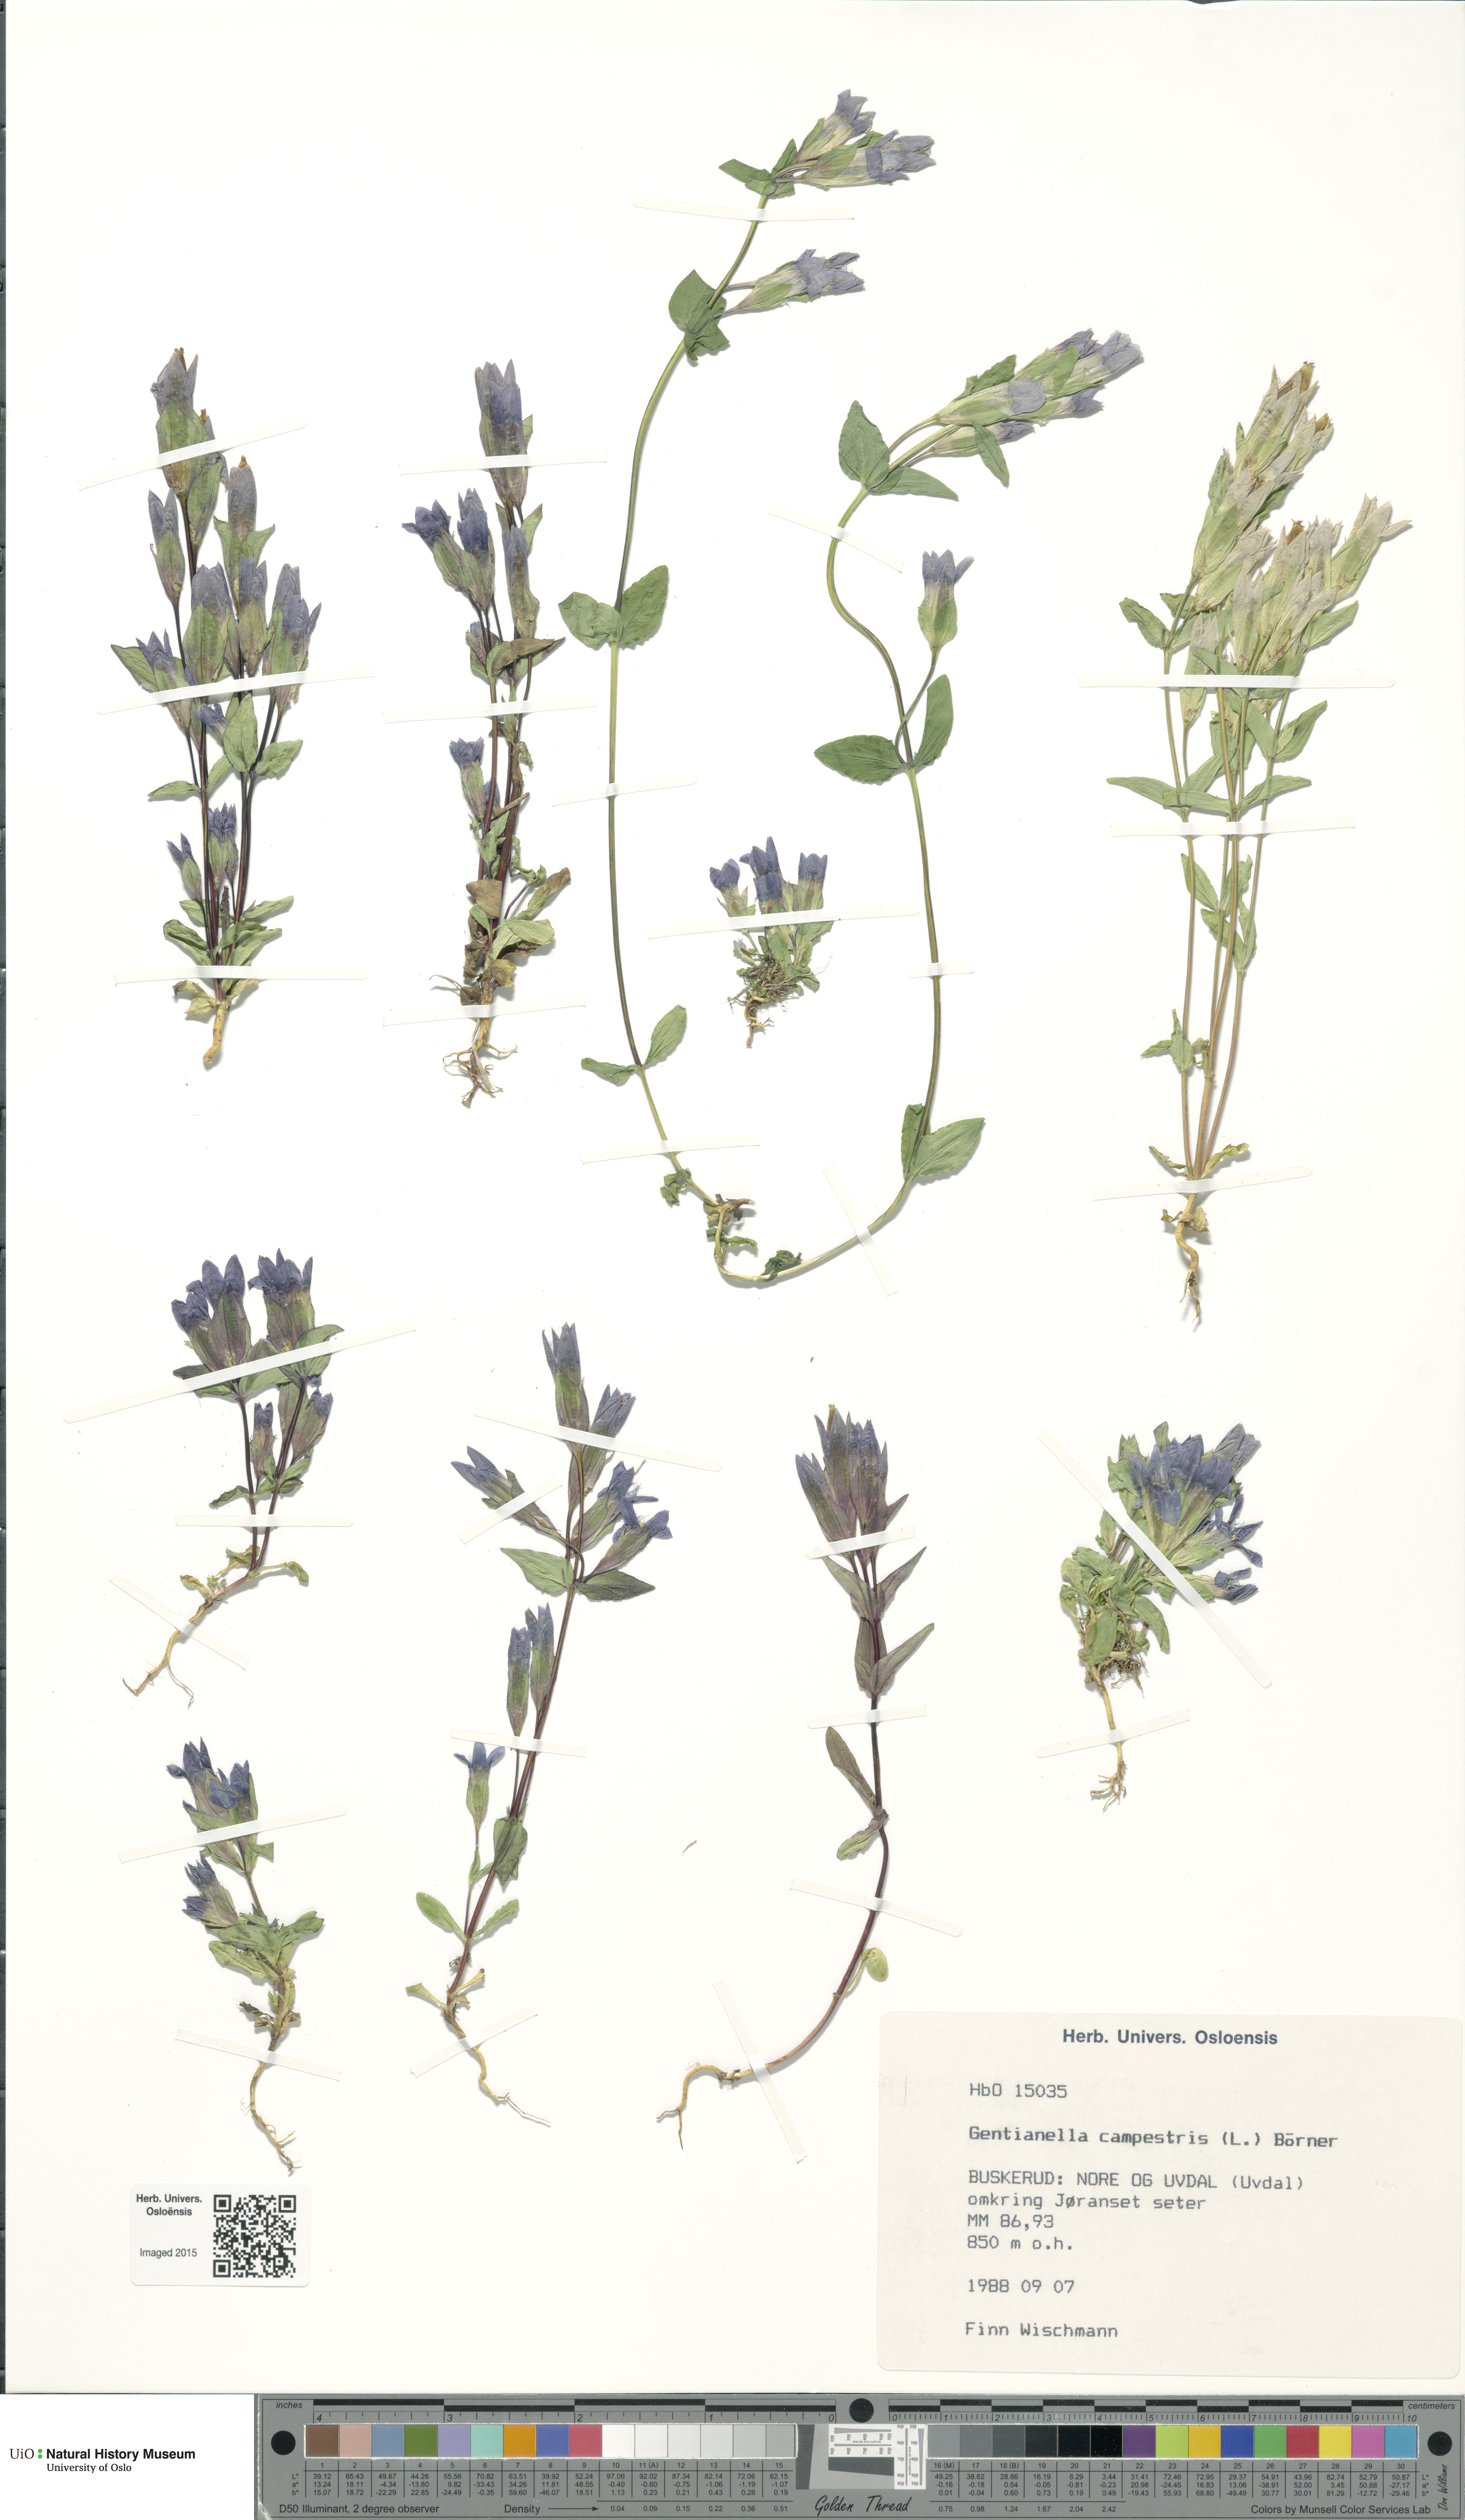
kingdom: Plantae
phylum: Tracheophyta
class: Magnoliopsida
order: Gentianales
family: Gentianaceae
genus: Gentianella
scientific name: Gentianella campestris
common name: Field gentian
